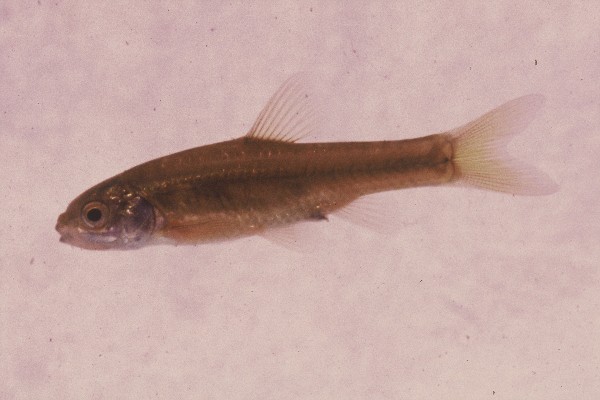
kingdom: Animalia
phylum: Chordata
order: Cypriniformes
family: Cyprinidae
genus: Enteromius
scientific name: Enteromius anoplus
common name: Chubbyhead barb
